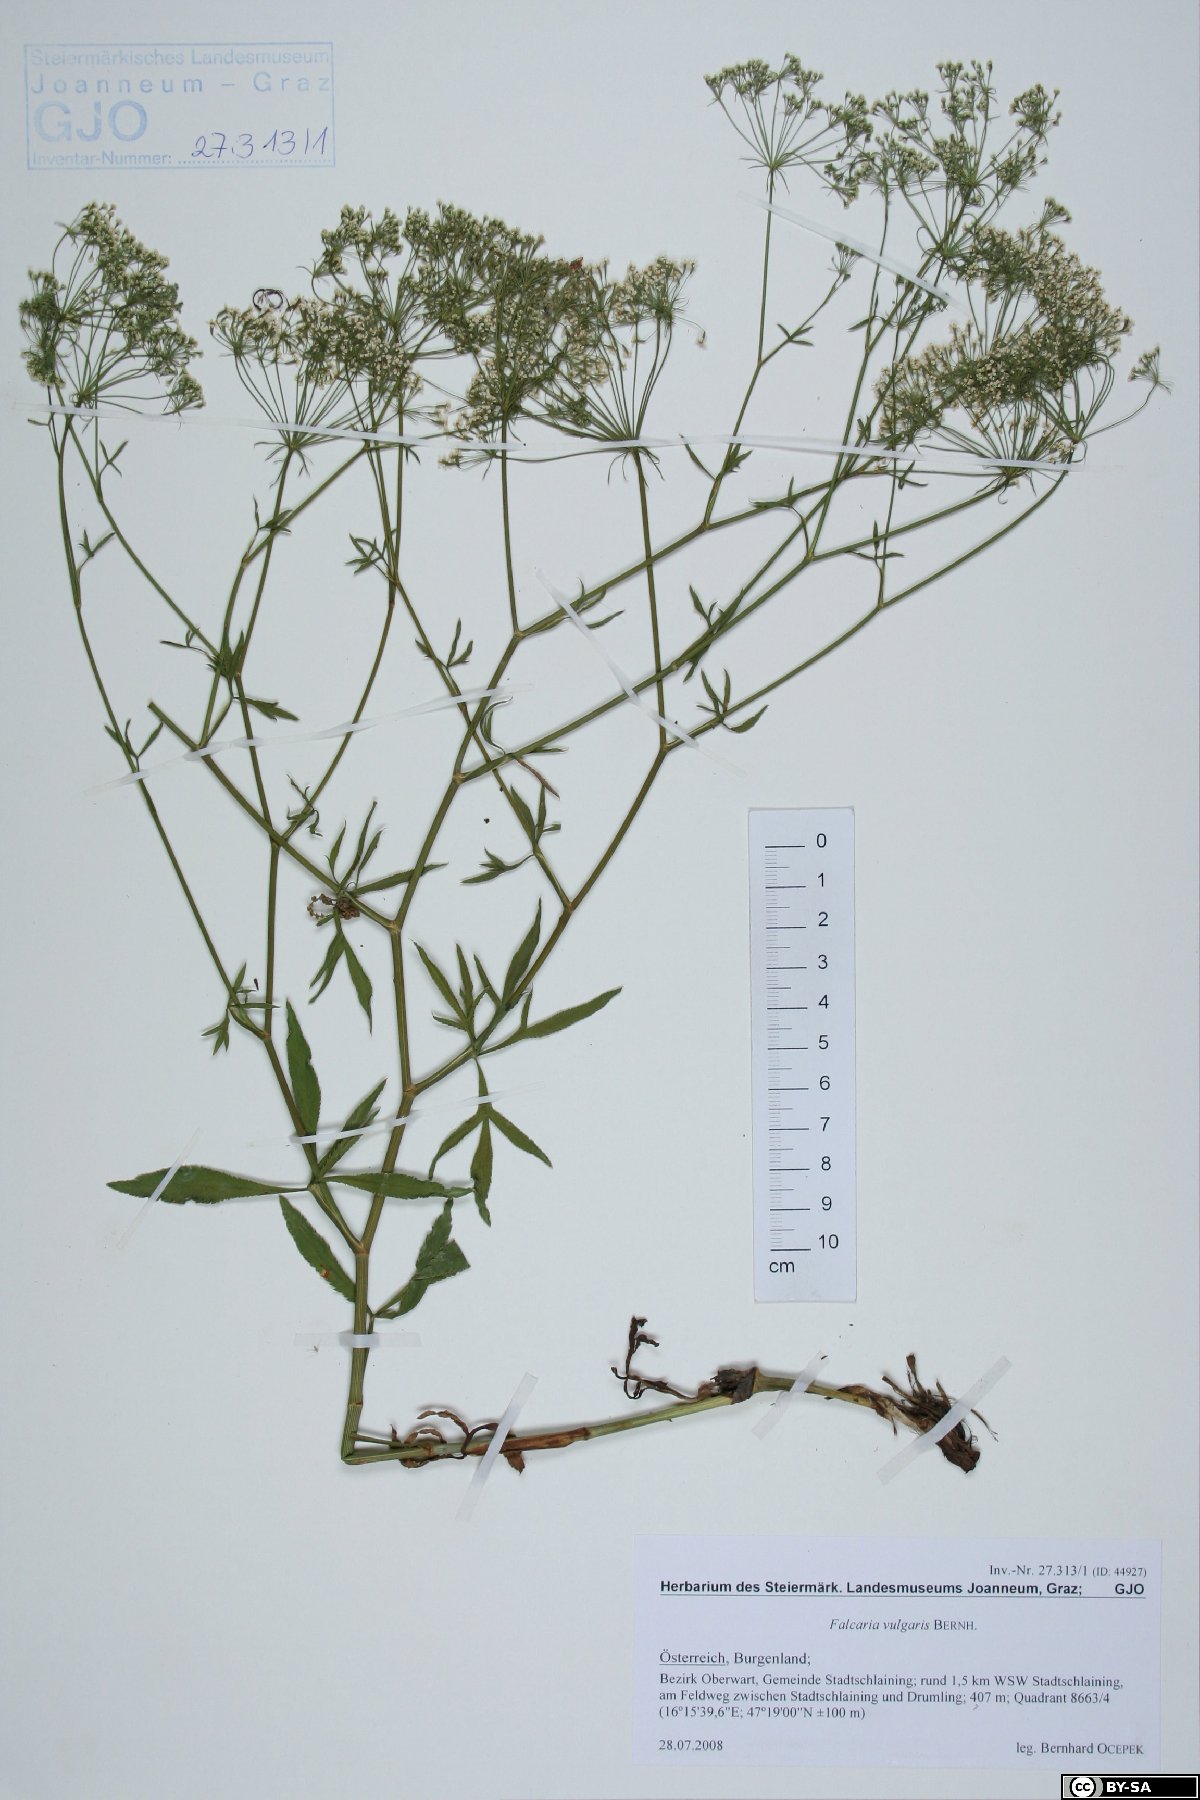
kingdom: Plantae
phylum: Tracheophyta
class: Magnoliopsida
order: Apiales
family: Apiaceae
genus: Falcaria
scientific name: Falcaria vulgaris
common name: Longleaf
